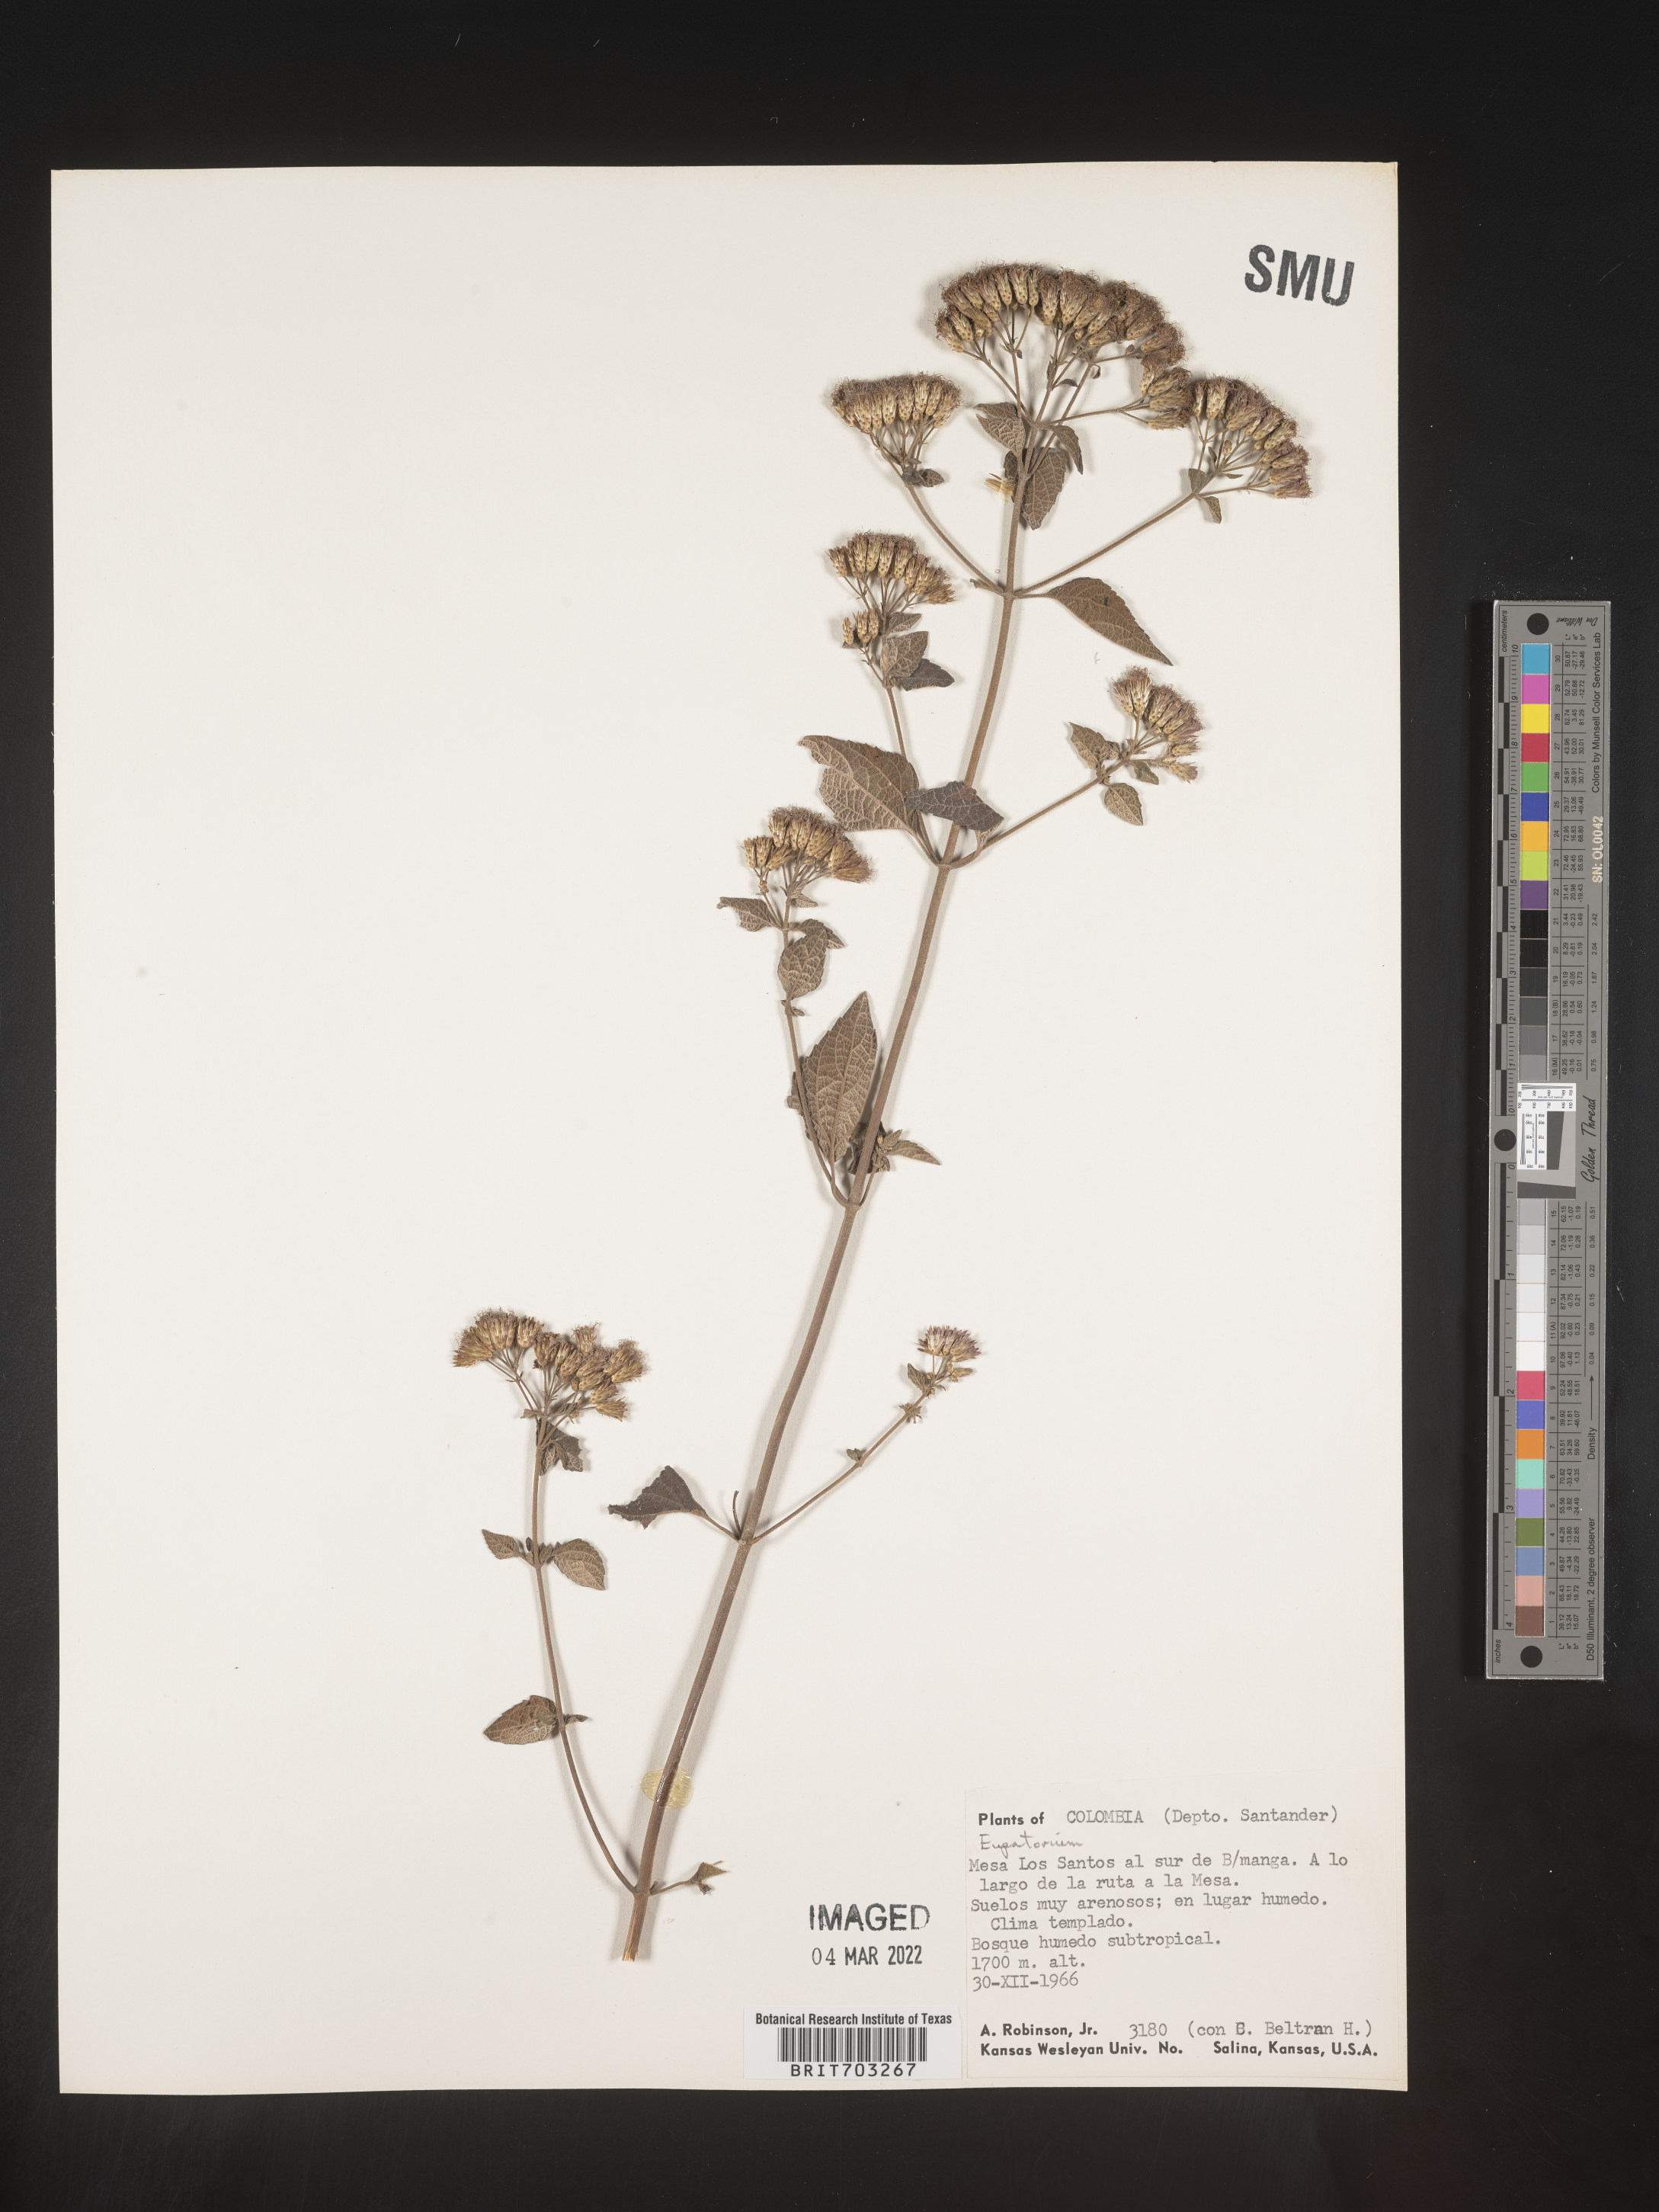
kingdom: Plantae
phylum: Tracheophyta
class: Magnoliopsida
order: Asterales
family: Asteraceae
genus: Eupatorium
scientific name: Eupatorium
